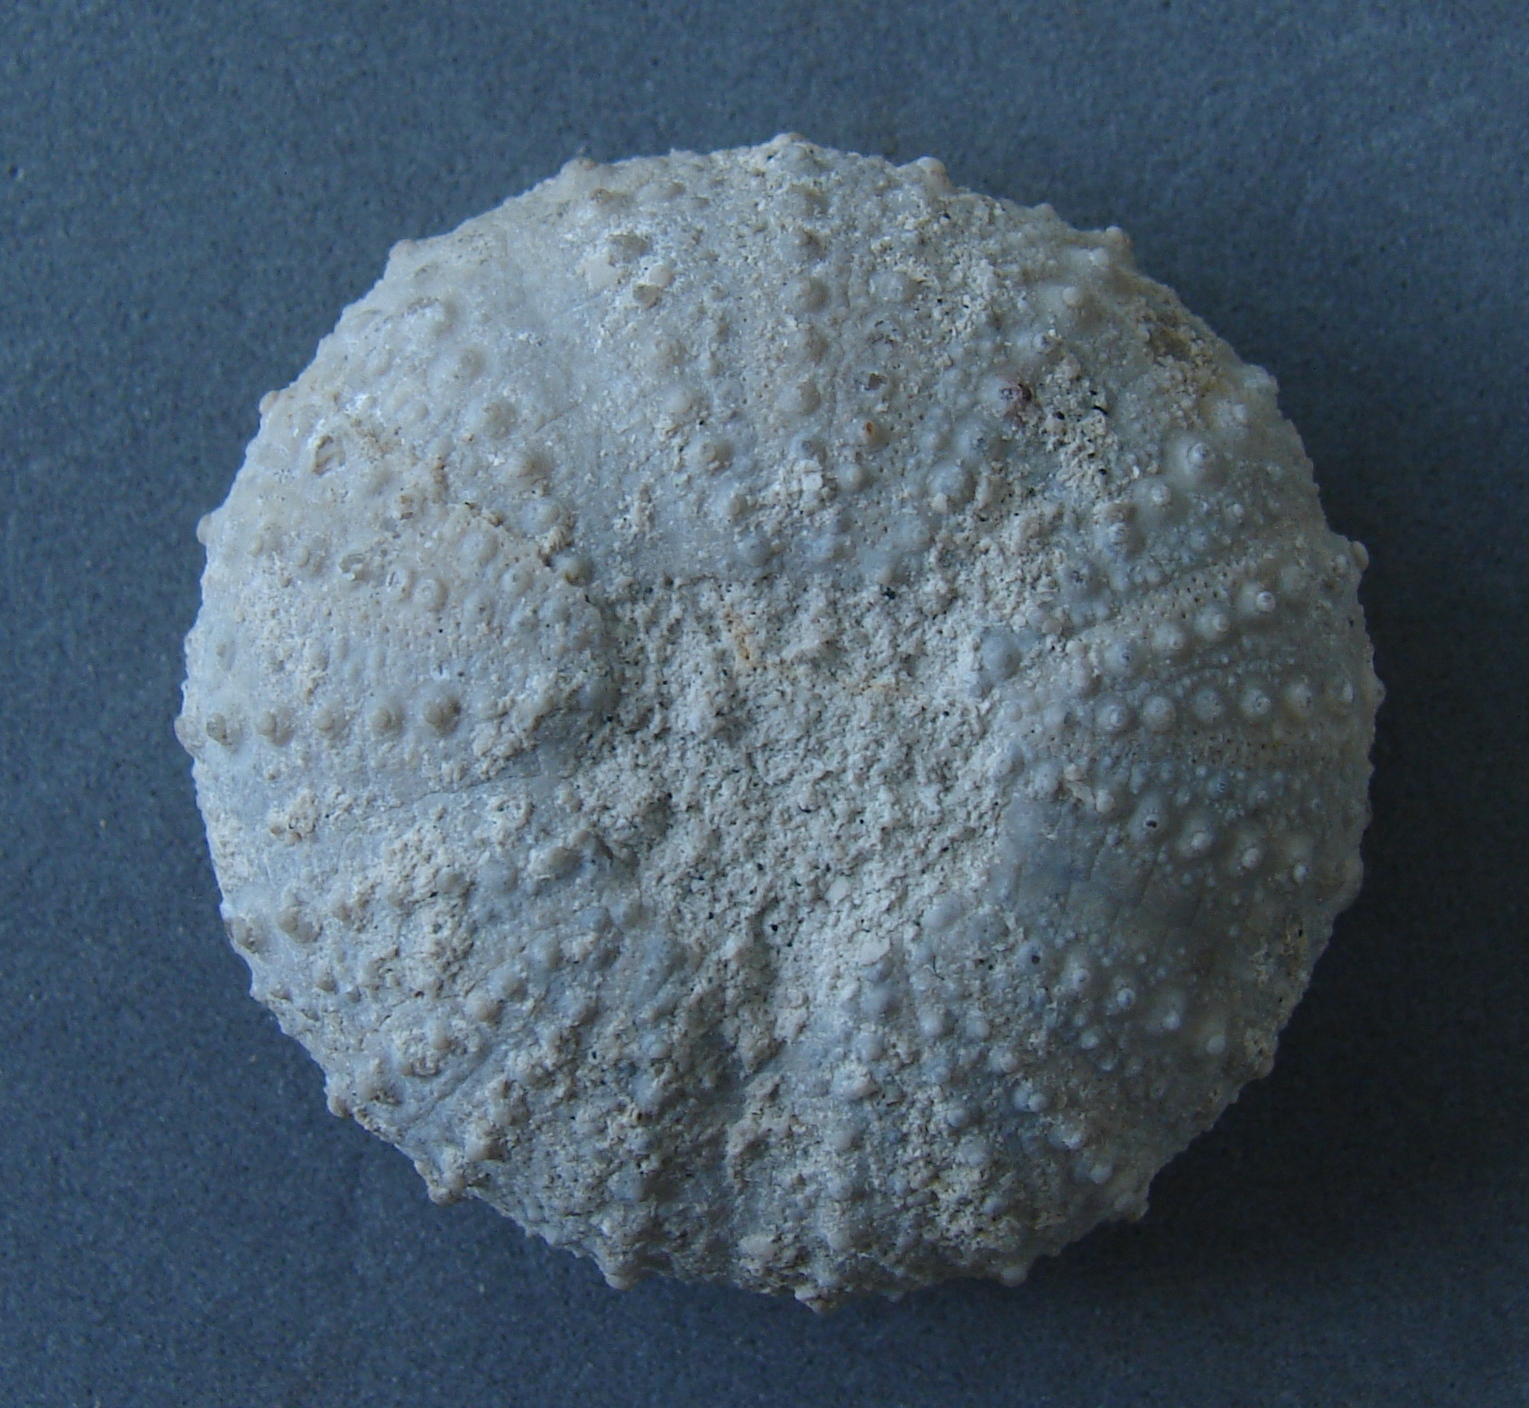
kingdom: Animalia
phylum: Arthropoda
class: Insecta
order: Coleoptera
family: Buprestidae
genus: Cyphosoma
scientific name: Cyphosoma
